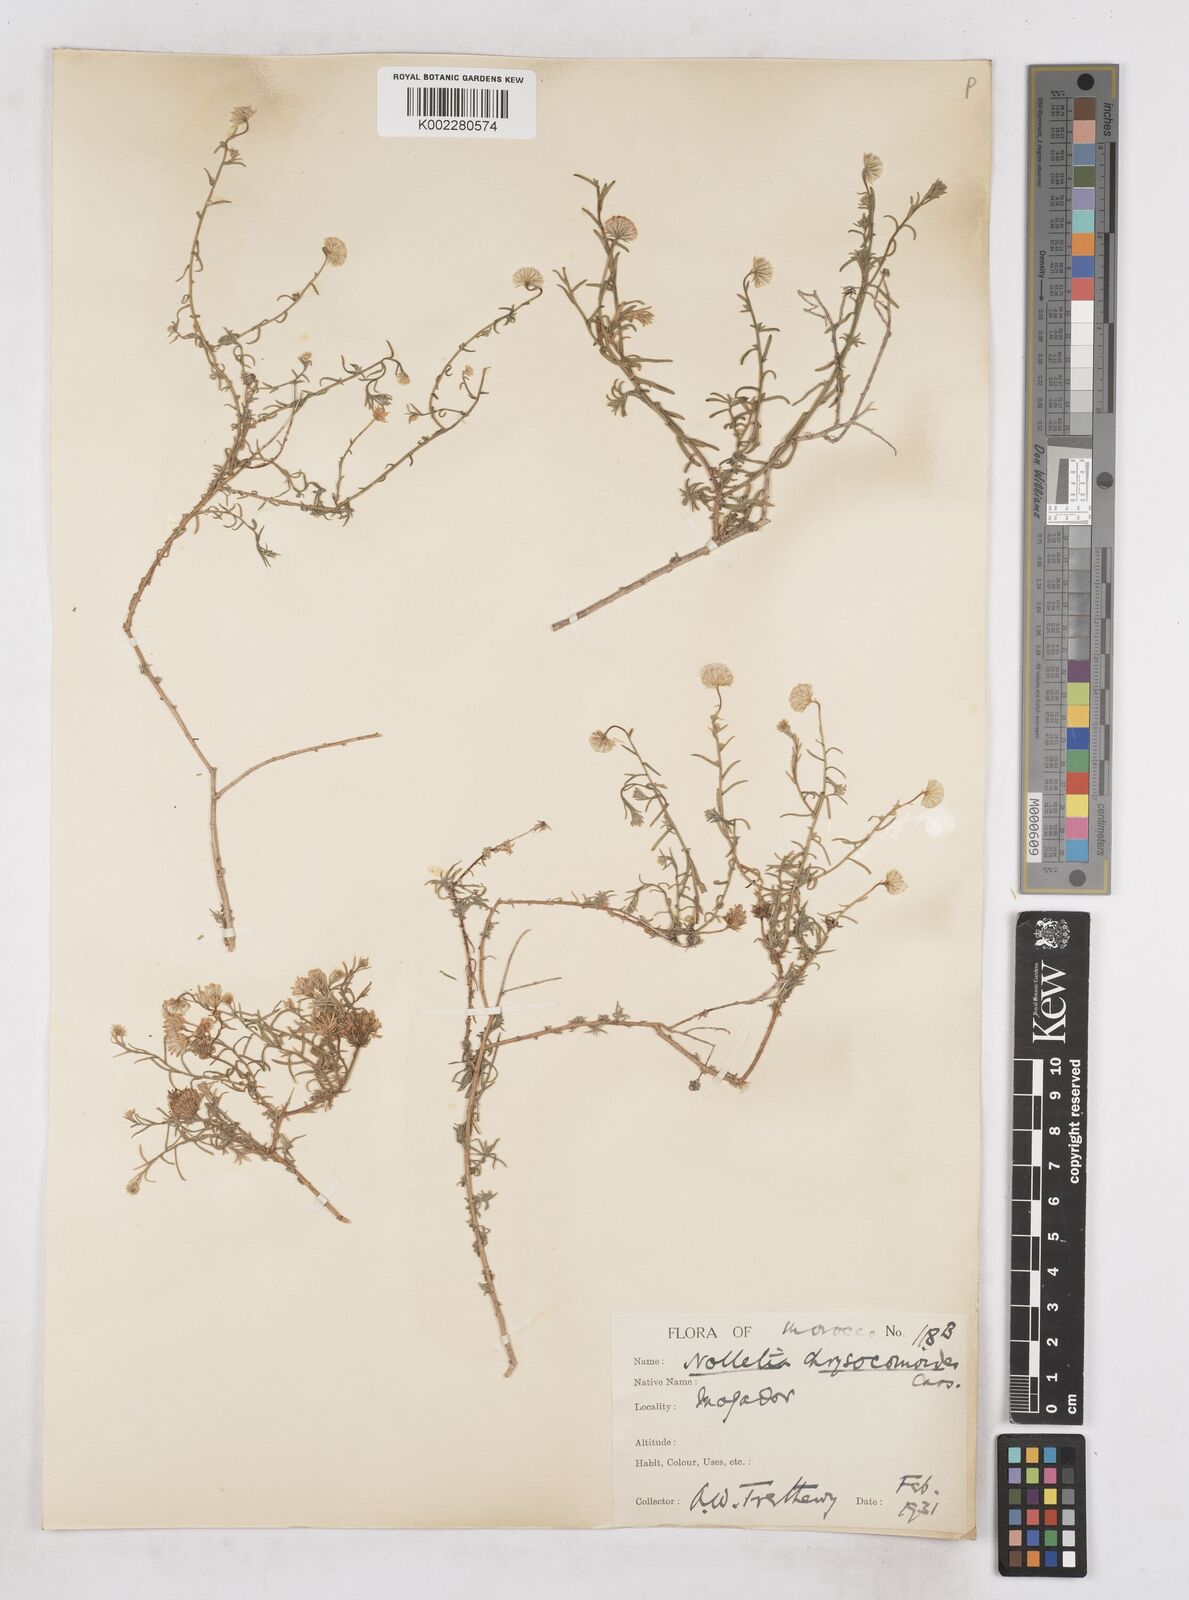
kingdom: Plantae
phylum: Tracheophyta
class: Magnoliopsida
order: Asterales
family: Asteraceae
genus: Nolletia
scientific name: Nolletia chrysocomoides
